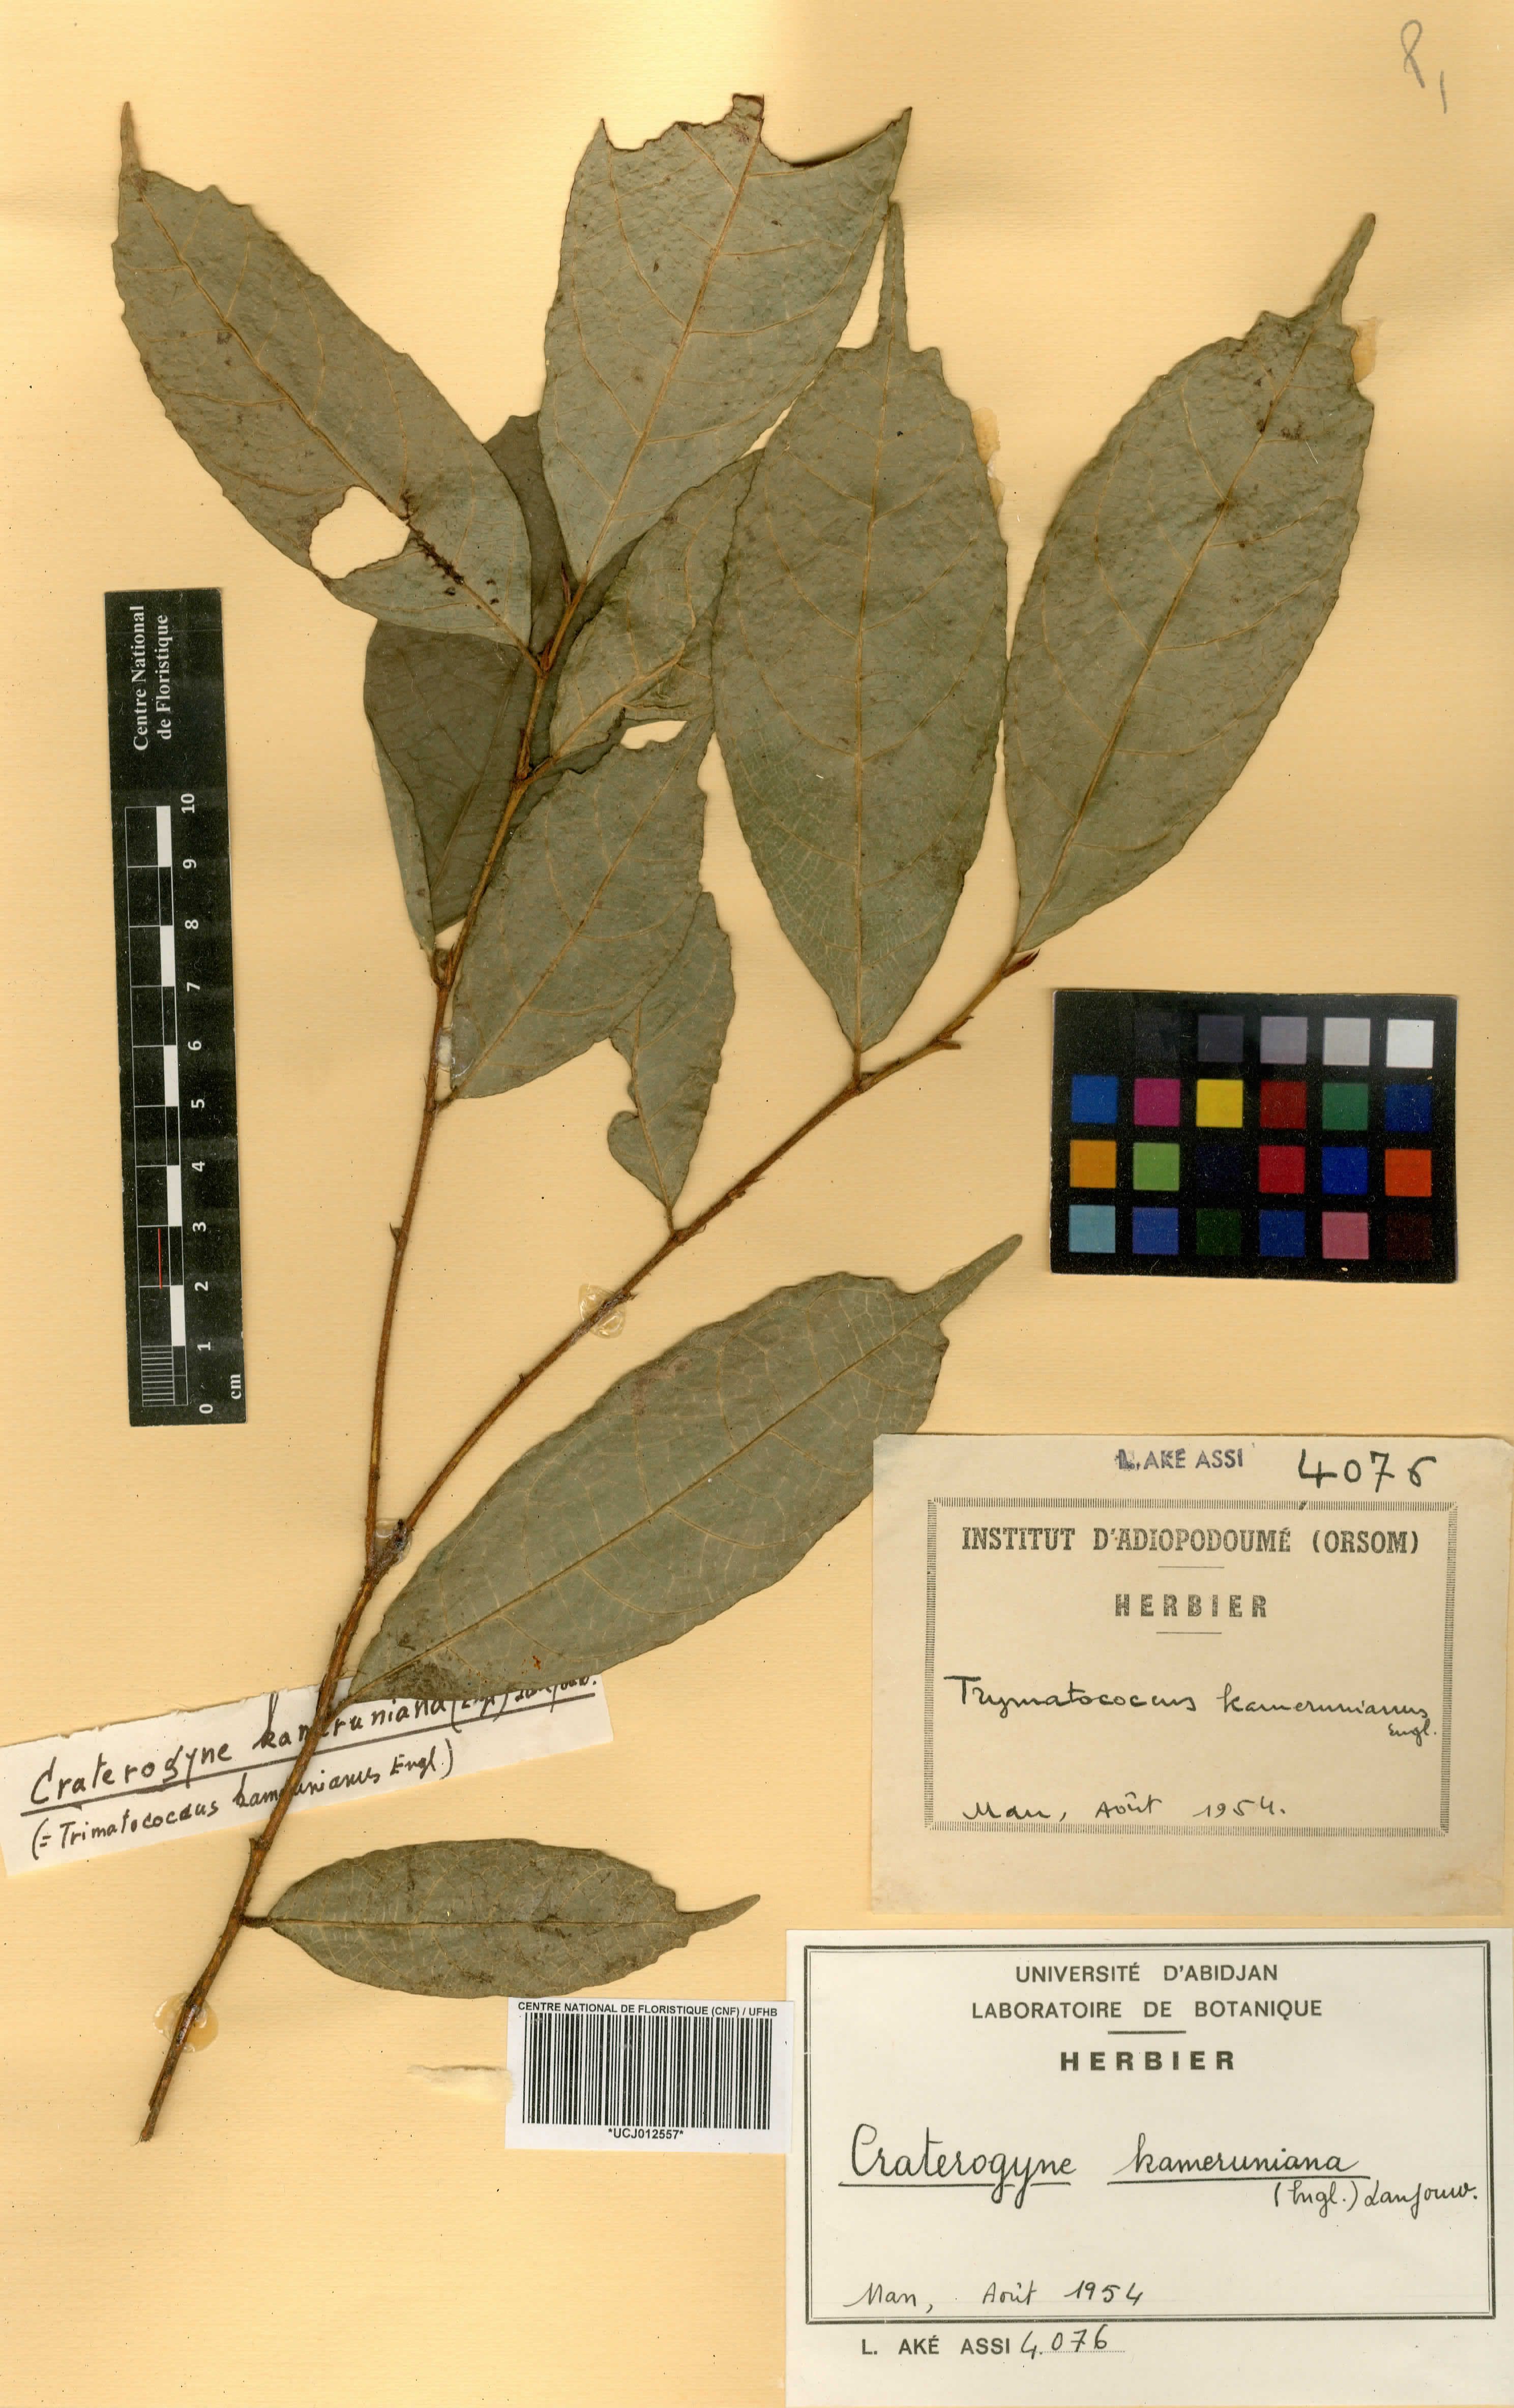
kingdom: Plantae
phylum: Tracheophyta
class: Magnoliopsida
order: Rosales
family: Moraceae
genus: Dorstenia
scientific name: Dorstenia kameruniana
